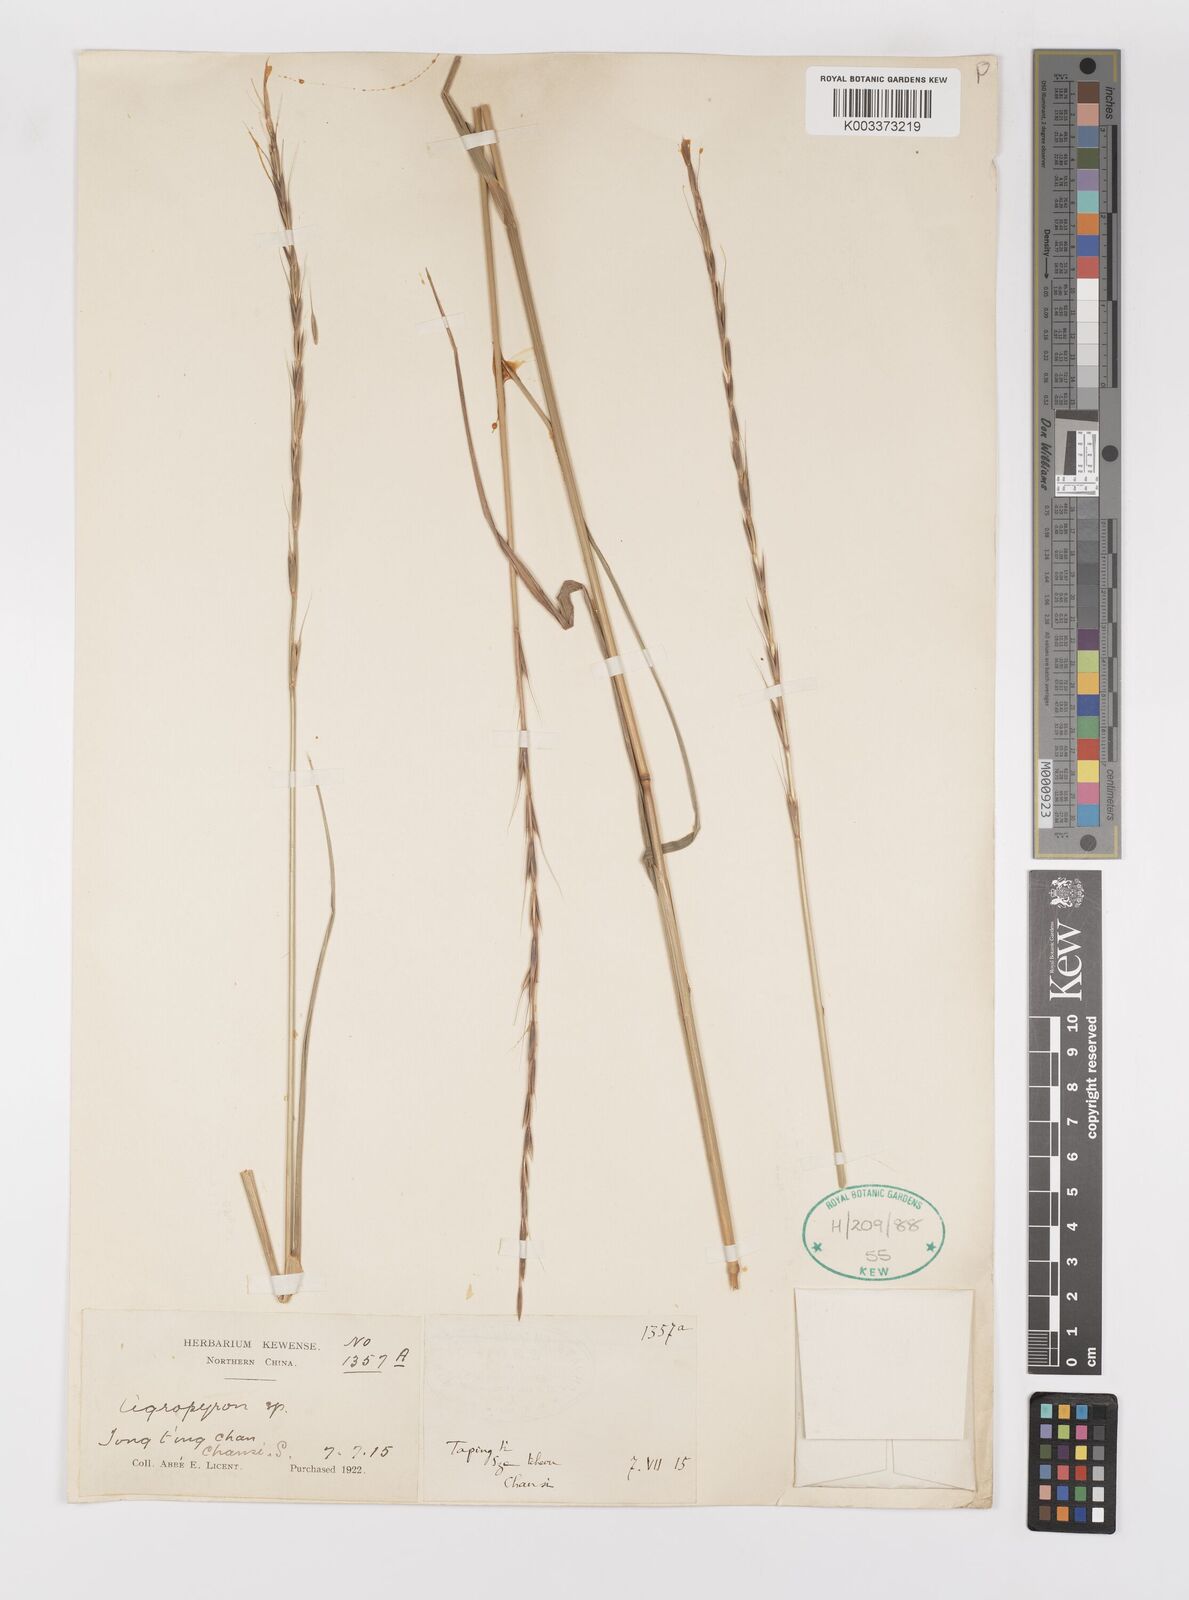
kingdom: Plantae
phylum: Tracheophyta
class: Liliopsida
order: Poales
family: Poaceae
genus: Elymus
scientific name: Elymus
